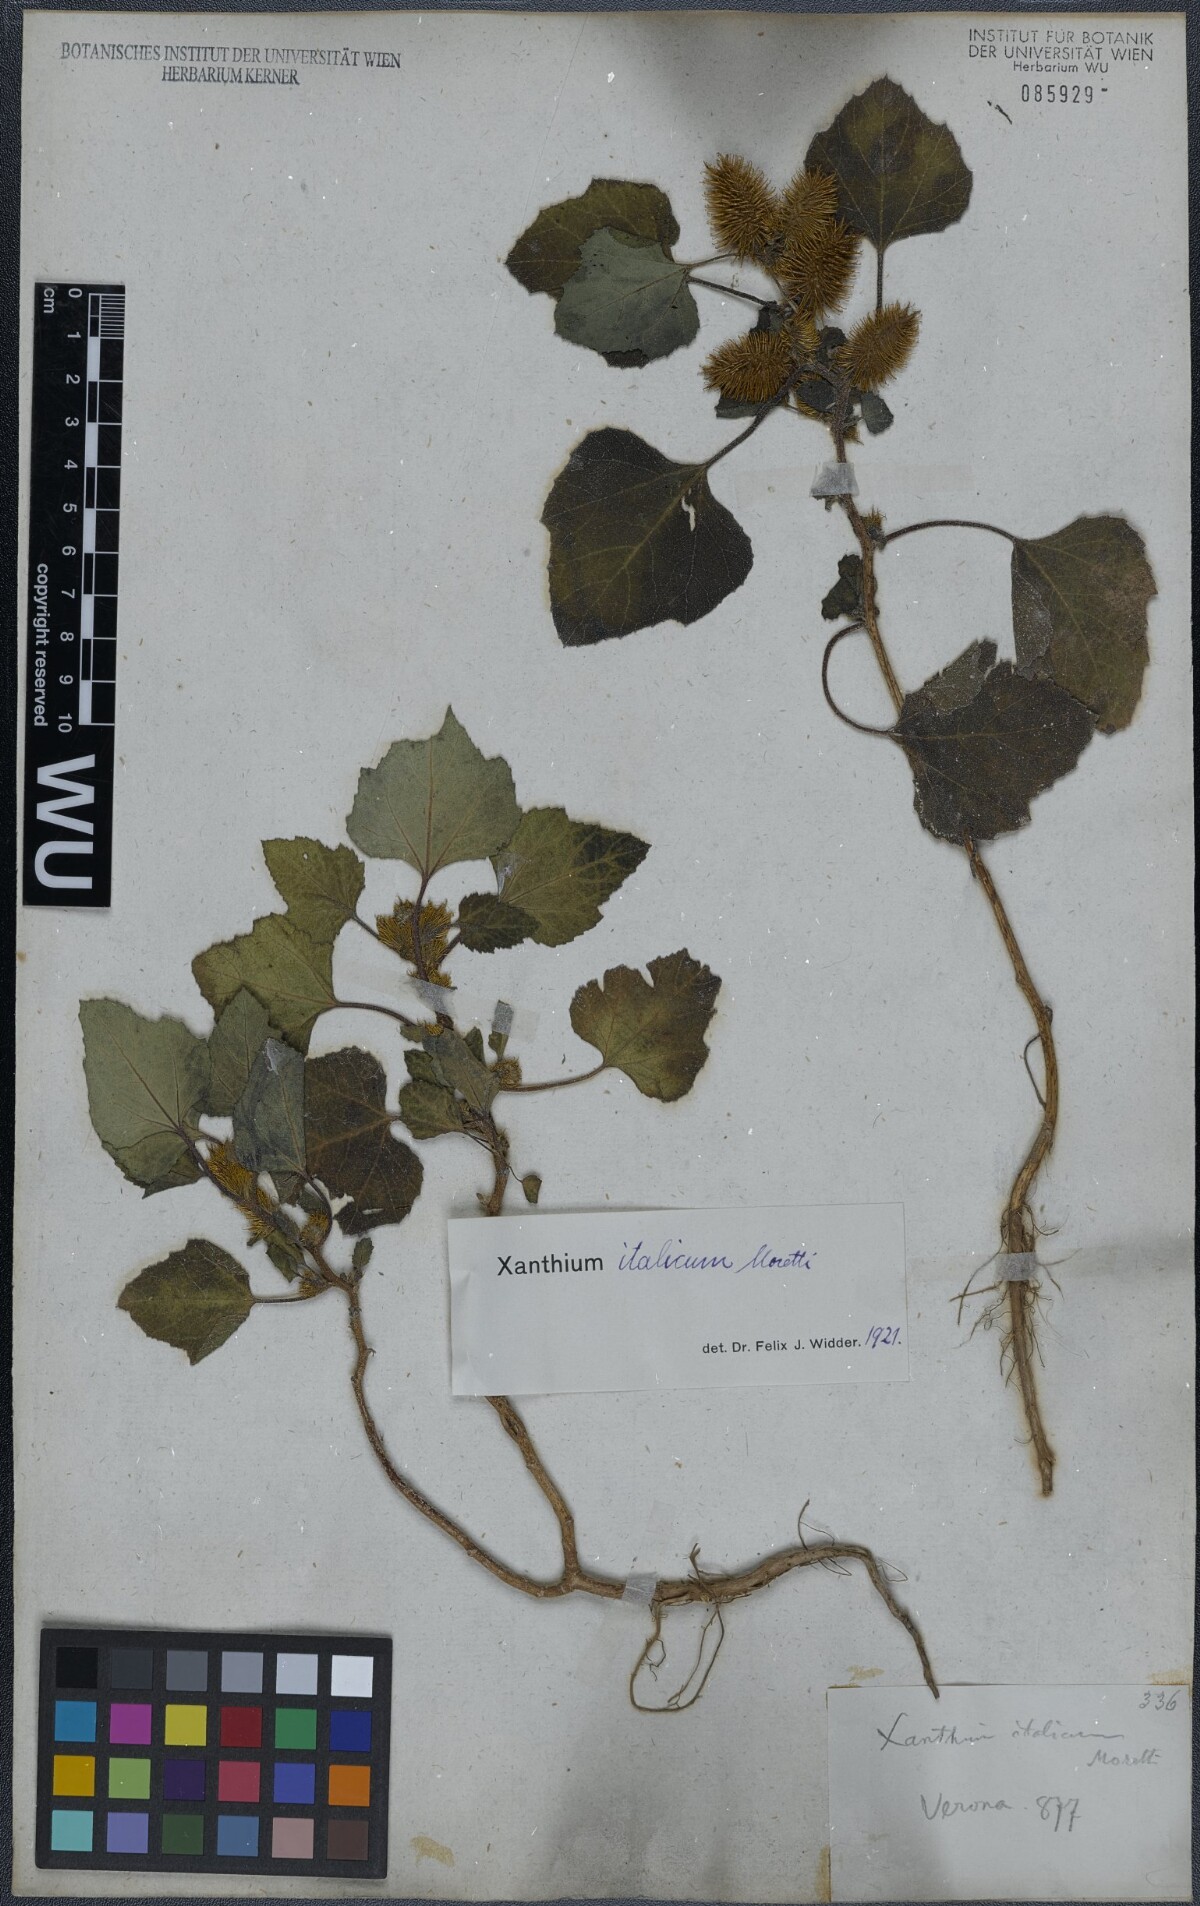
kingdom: Plantae
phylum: Tracheophyta
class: Magnoliopsida
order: Asterales
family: Asteraceae
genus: Xanthium
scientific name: Xanthium orientale
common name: Californian burr
